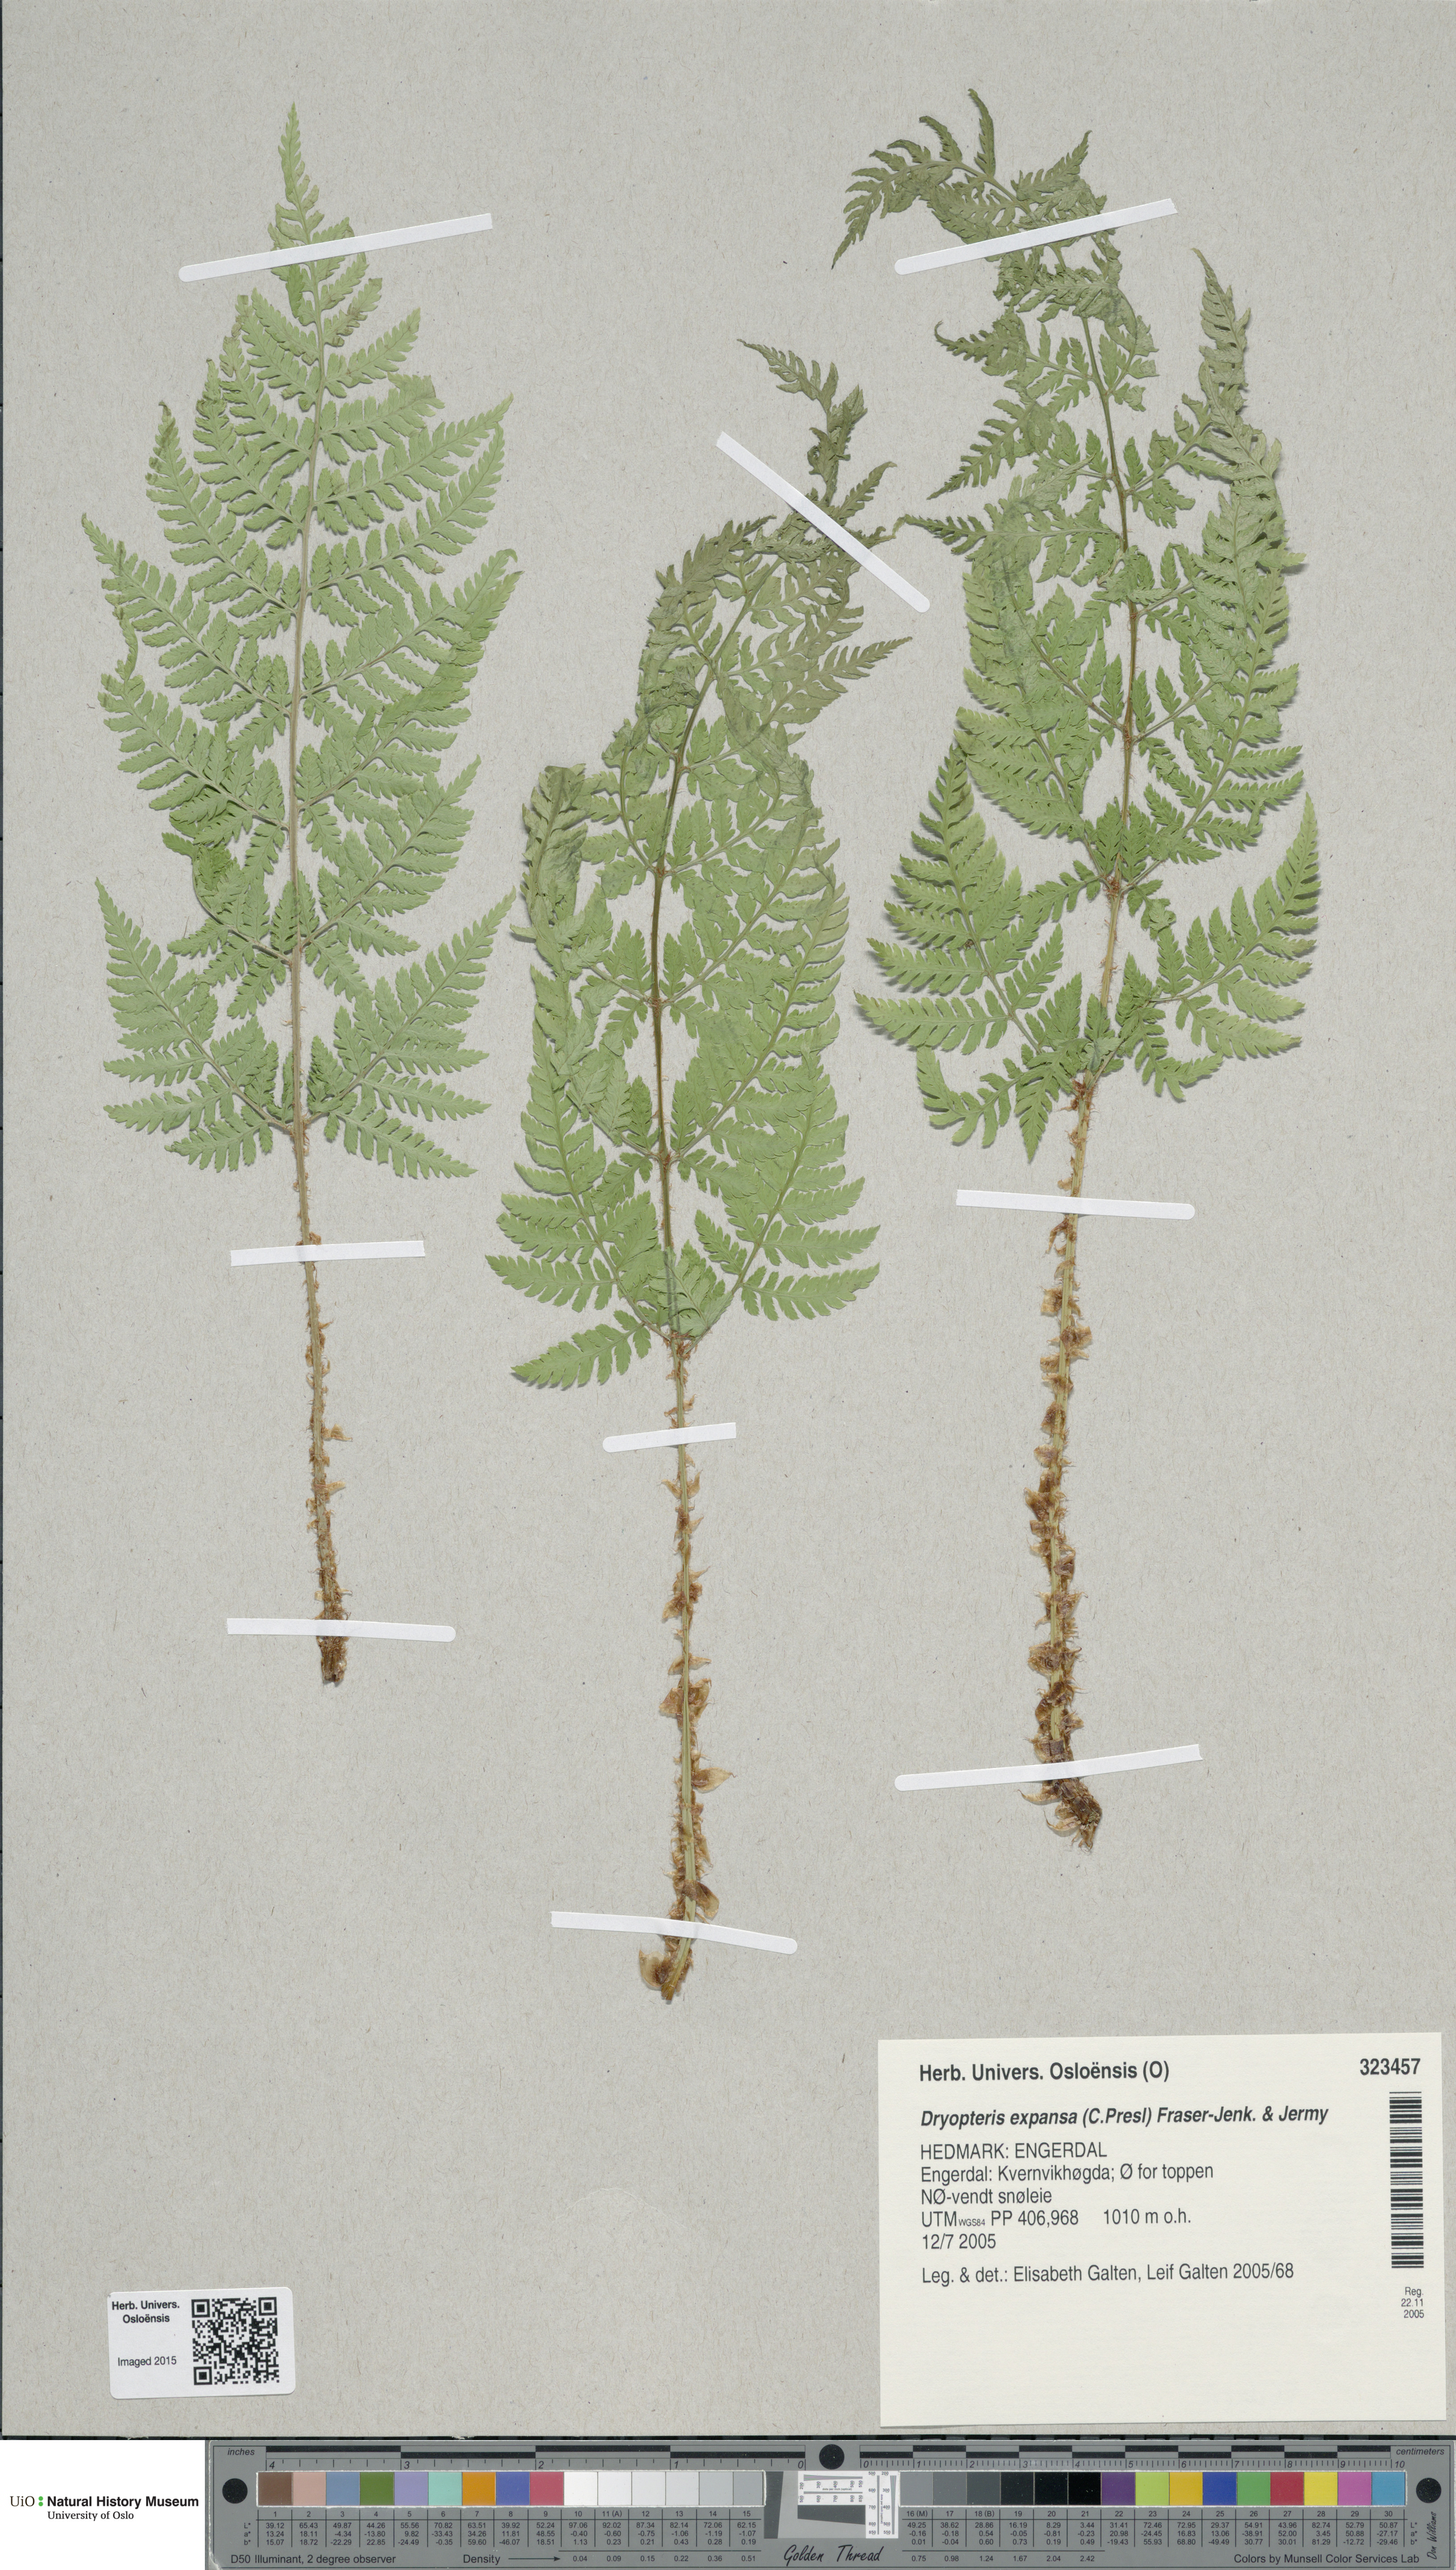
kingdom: Plantae
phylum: Tracheophyta
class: Polypodiopsida
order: Polypodiales
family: Dryopteridaceae
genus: Dryopteris
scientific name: Dryopteris expansa
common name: Northern buckler fern
